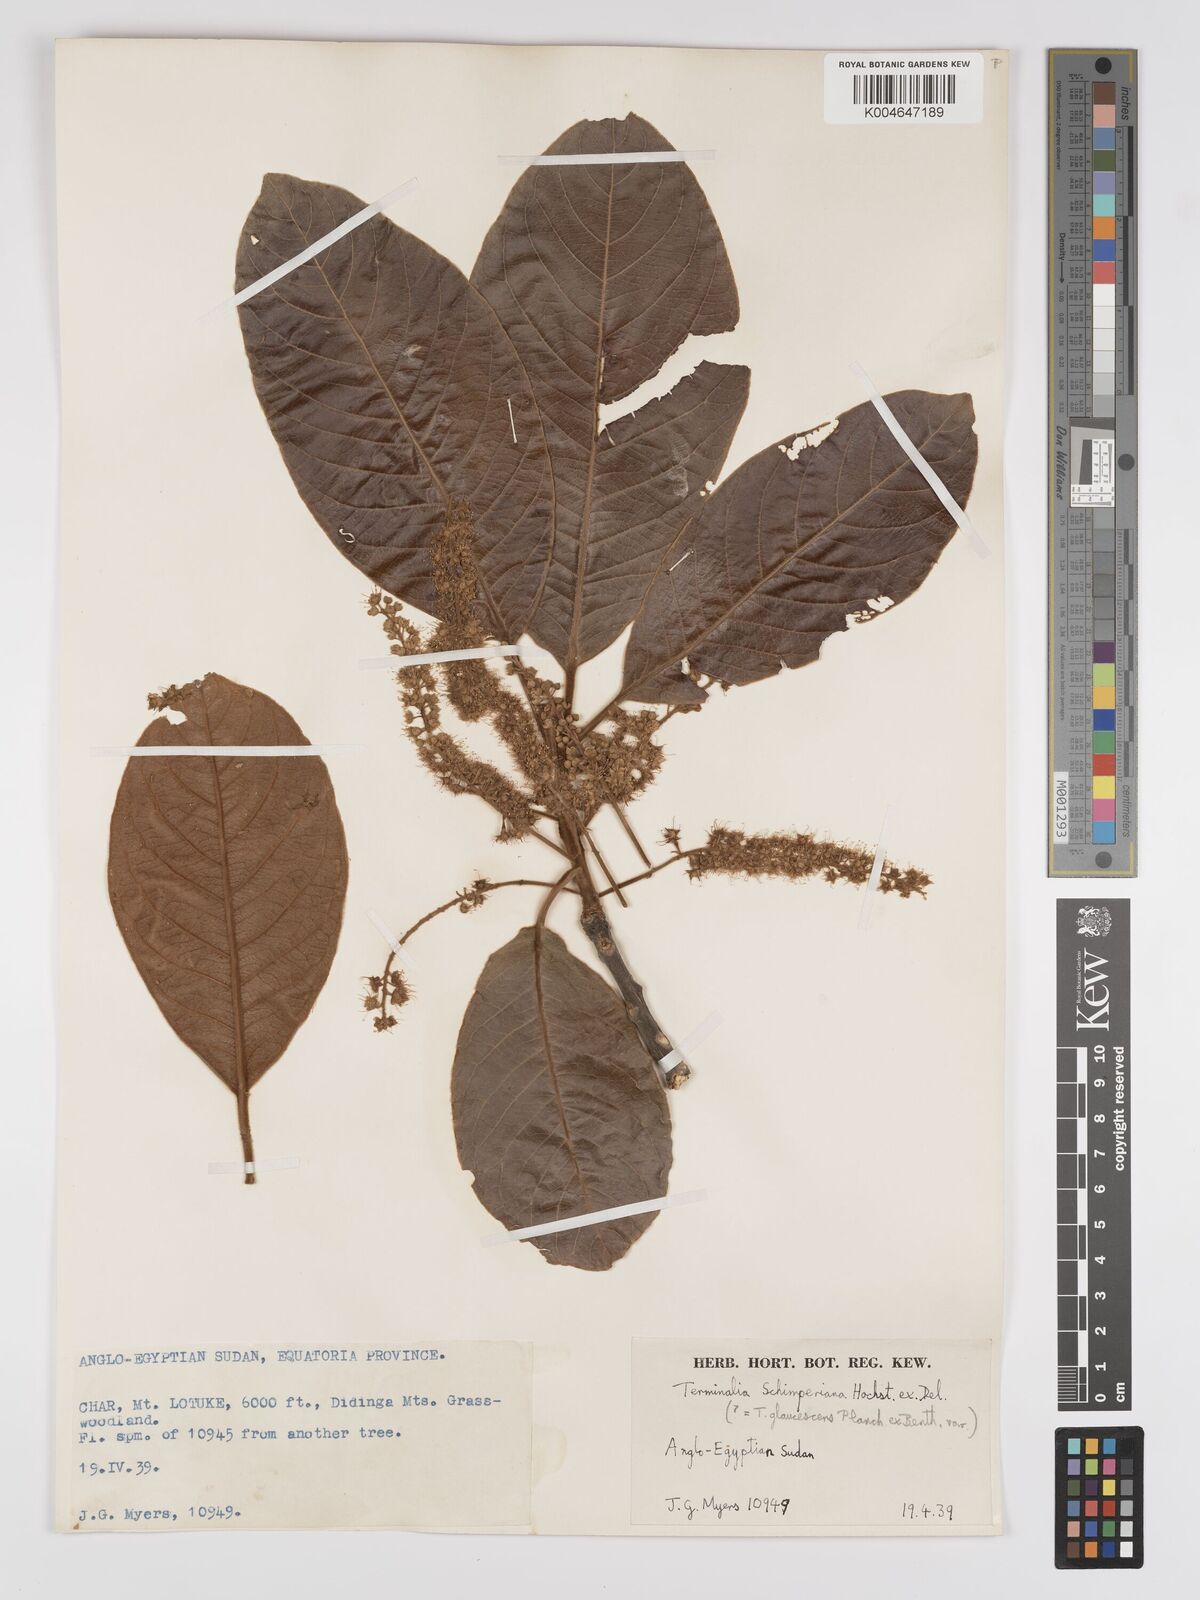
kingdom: Plantae
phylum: Tracheophyta
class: Magnoliopsida
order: Myrtales
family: Combretaceae
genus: Terminalia
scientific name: Terminalia schimperiana
